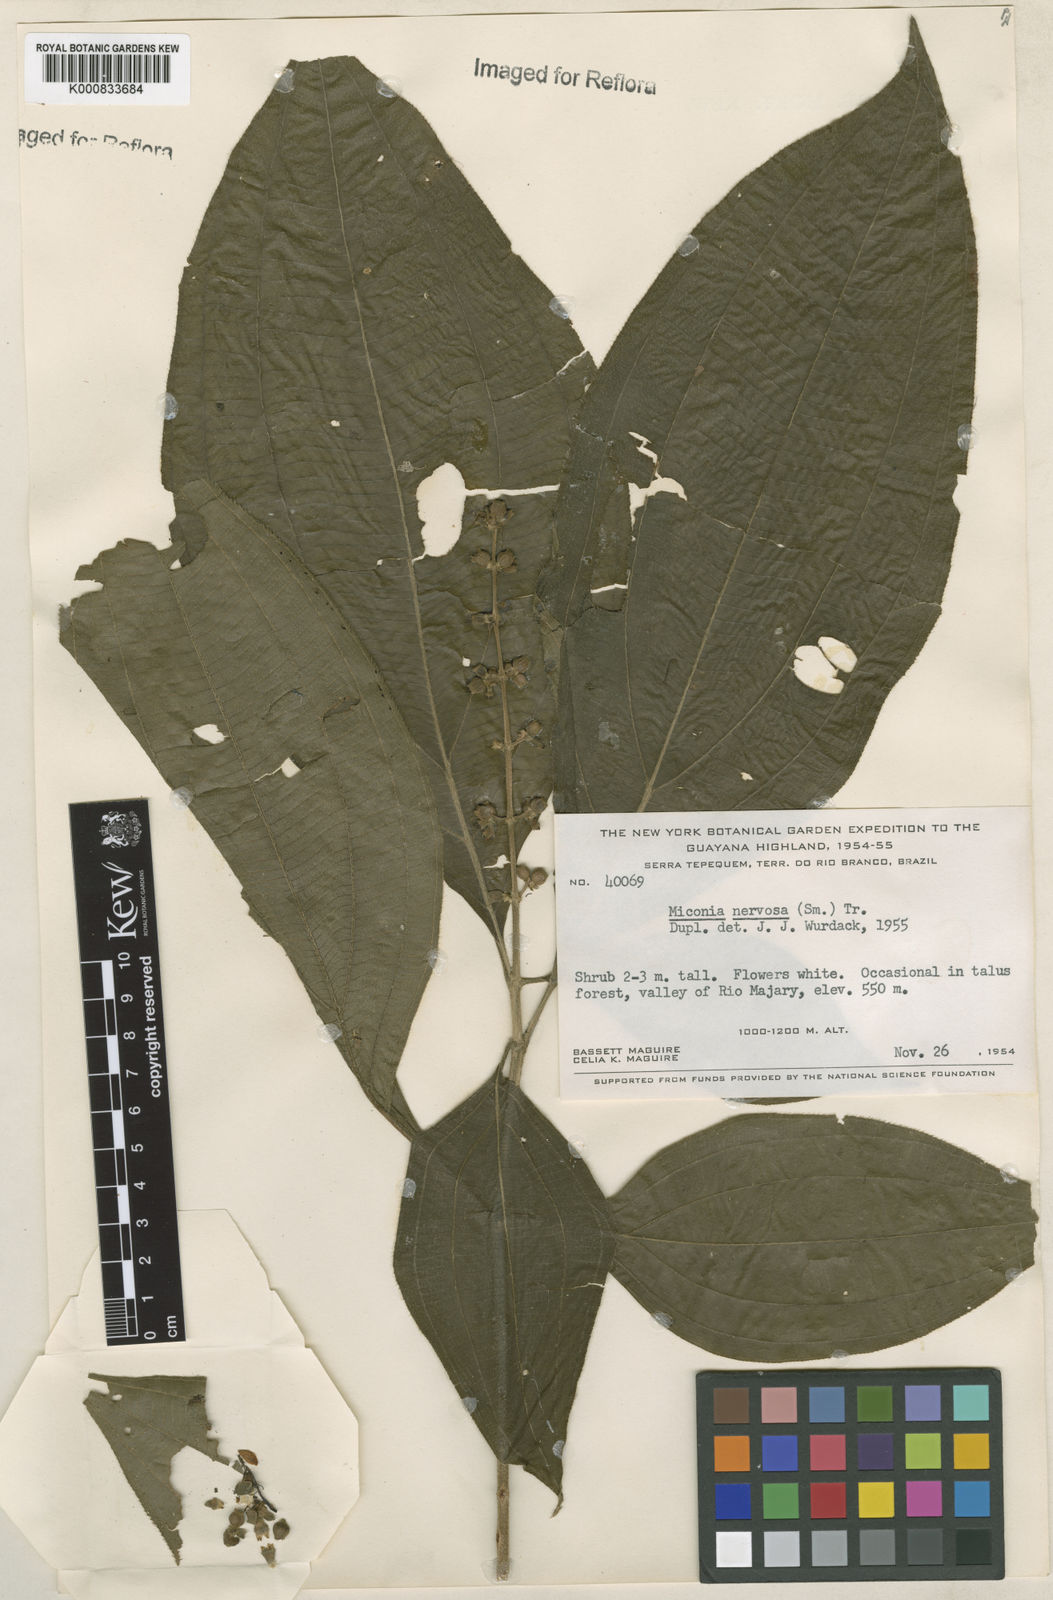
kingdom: Plantae
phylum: Tracheophyta
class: Magnoliopsida
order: Myrtales
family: Melastomataceae
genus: Miconia
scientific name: Miconia nervosa
